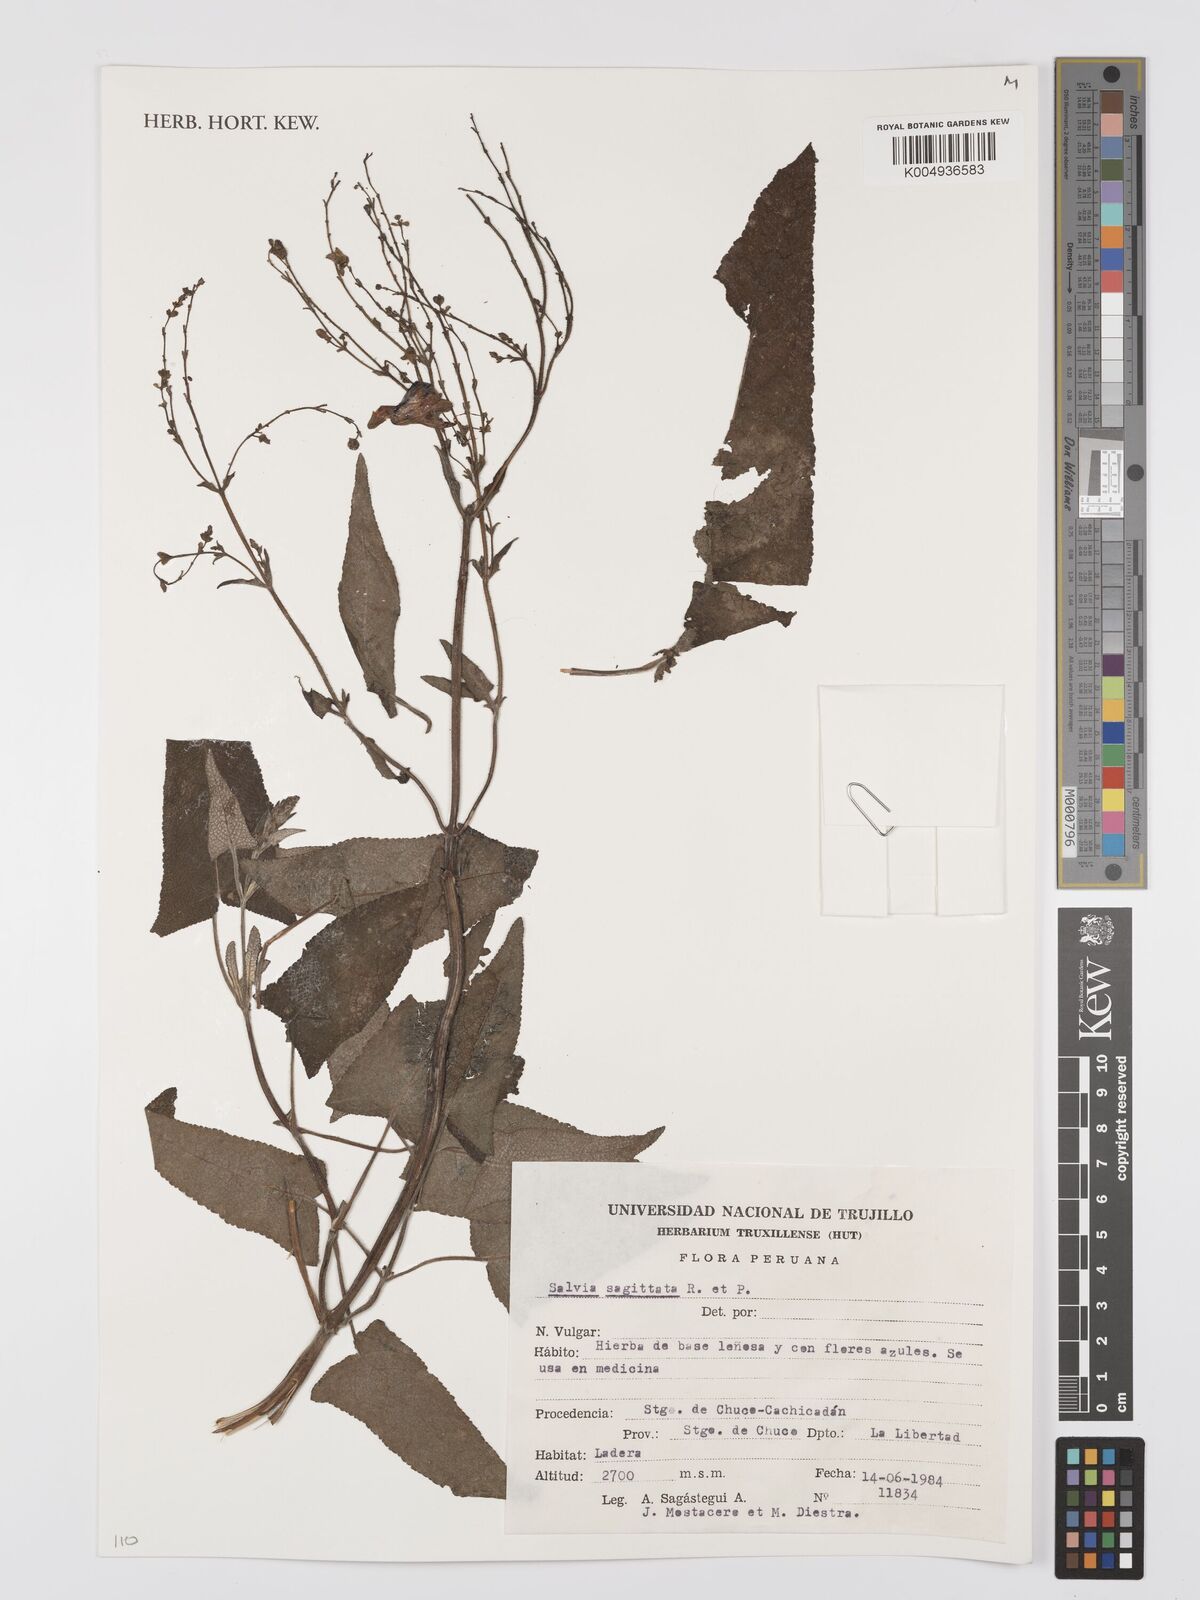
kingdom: Plantae
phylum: Tracheophyta
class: Magnoliopsida
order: Lamiales
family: Lamiaceae
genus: Salvia
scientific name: Salvia sagittata
